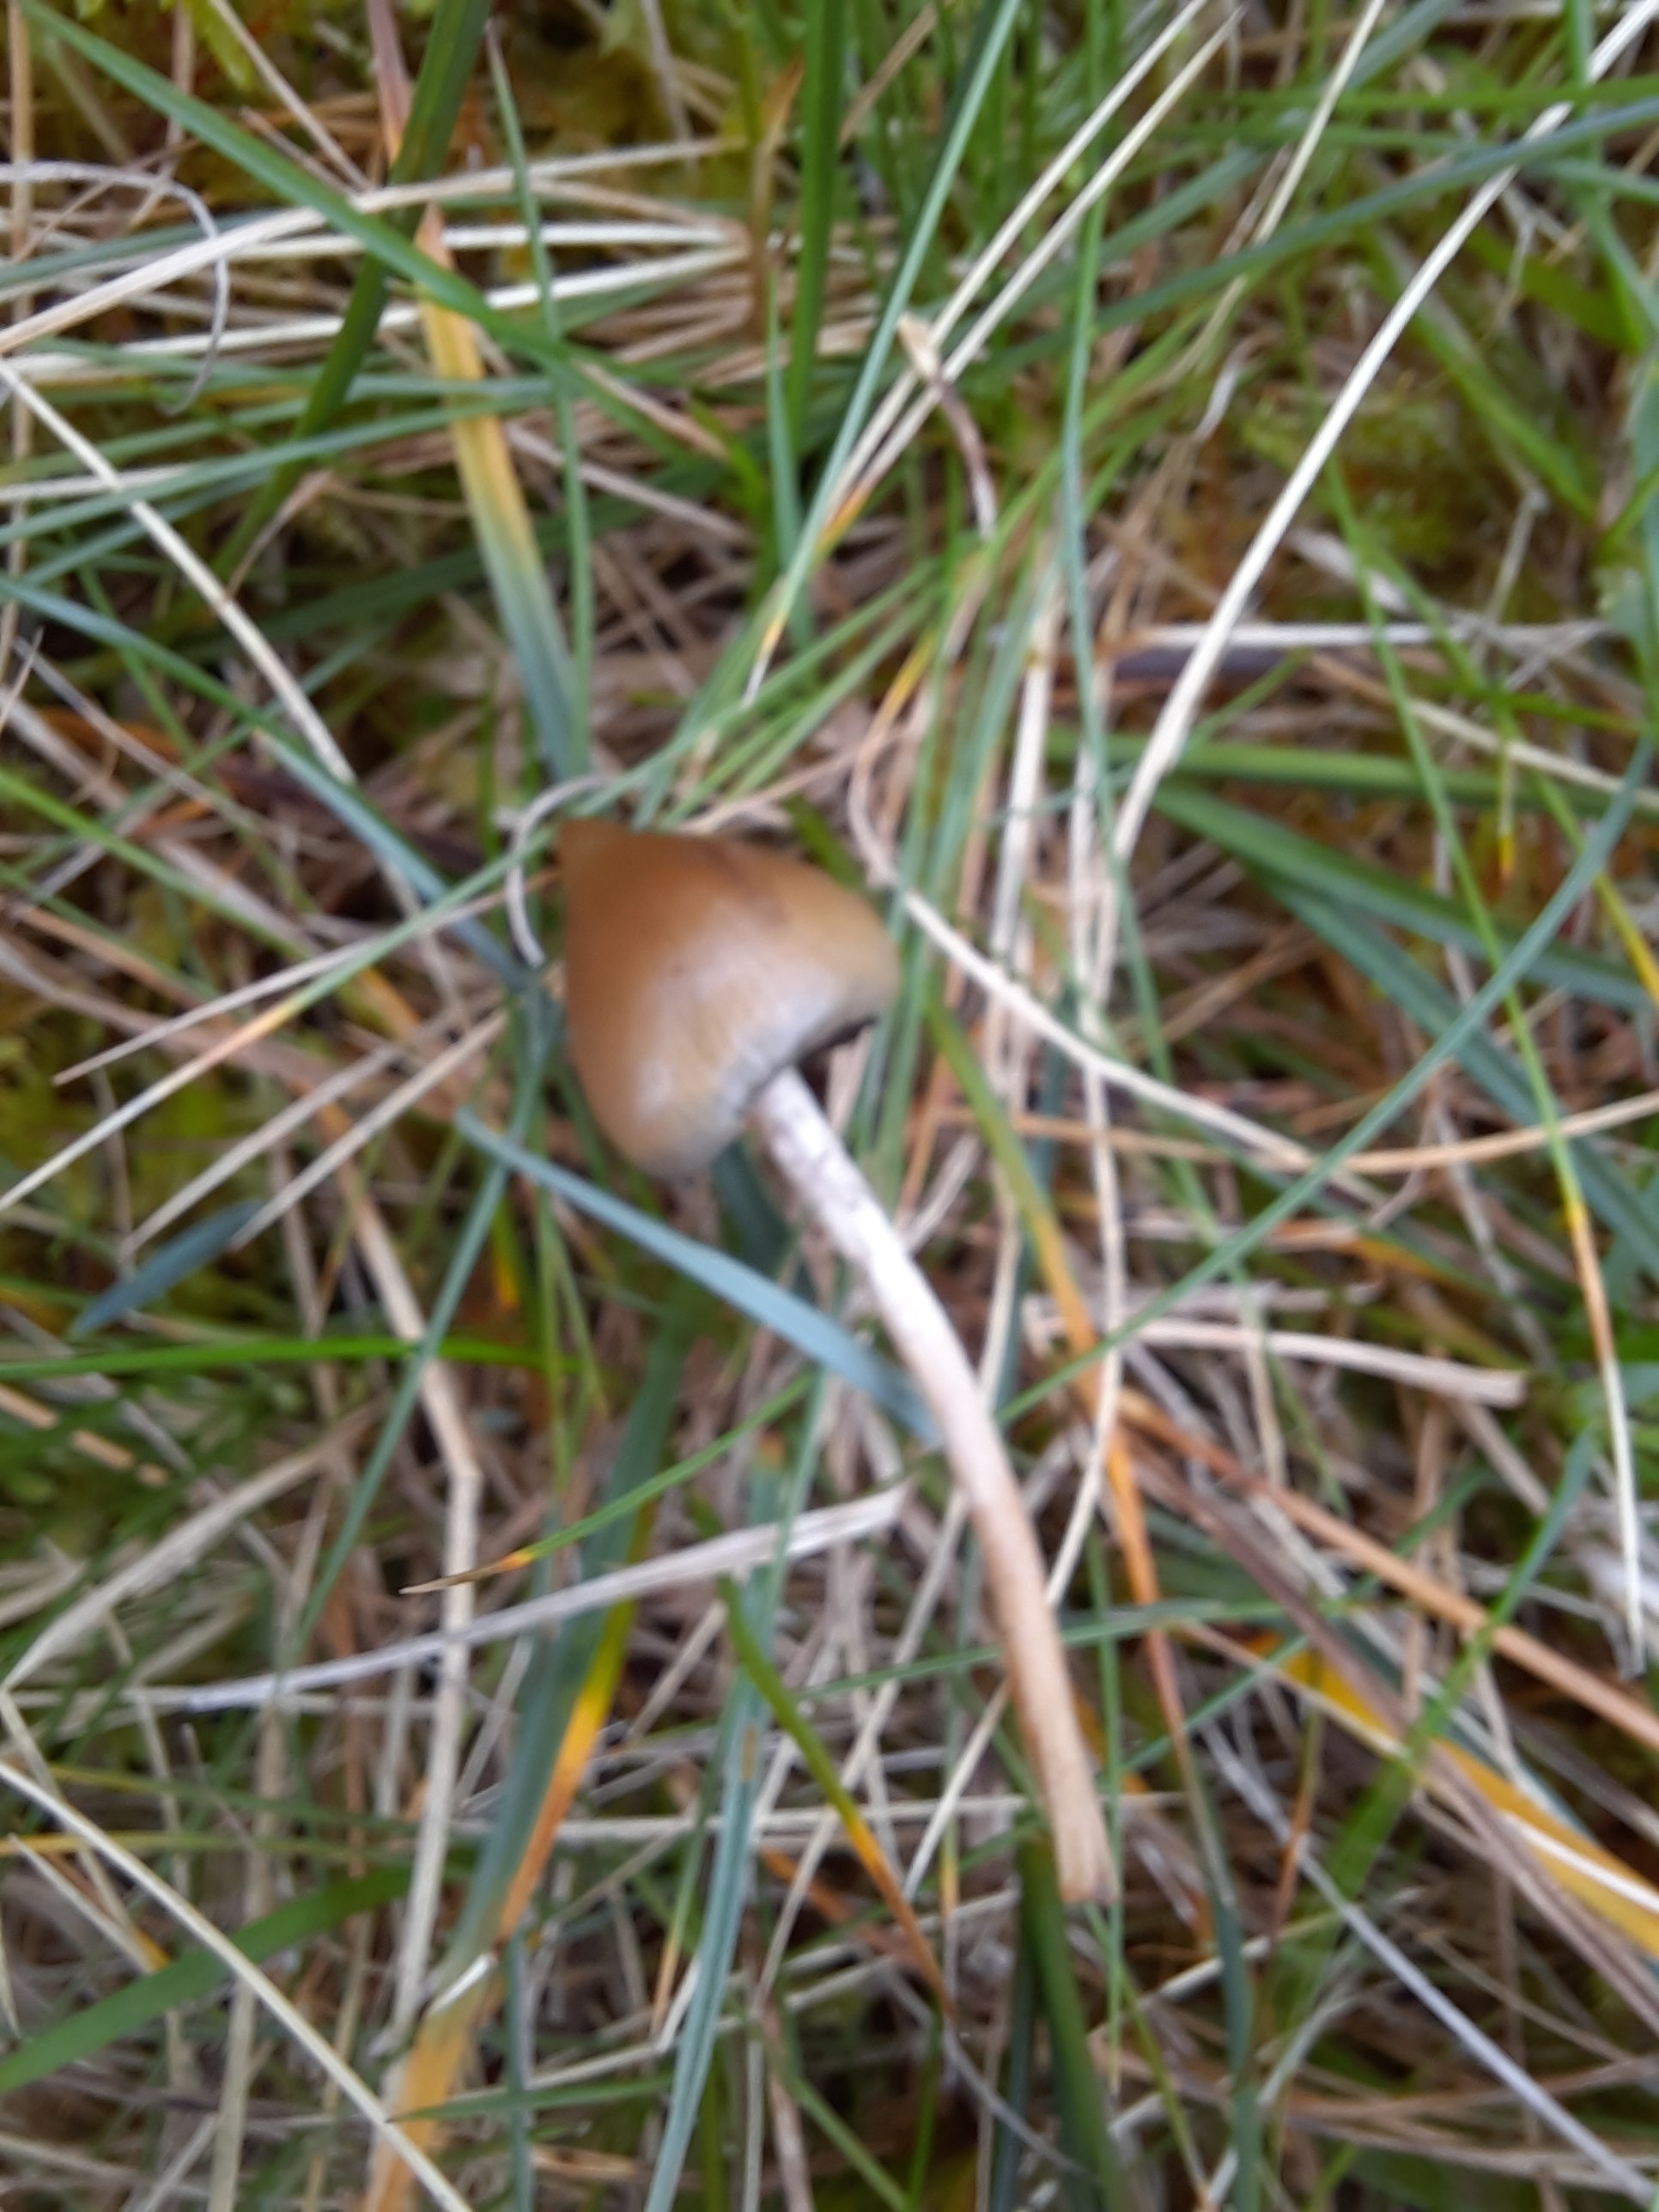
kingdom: Fungi
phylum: Basidiomycota
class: Agaricomycetes
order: Agaricales
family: Hymenogastraceae
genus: Psilocybe
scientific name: Psilocybe semilanceata
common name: spids nøgenhat
